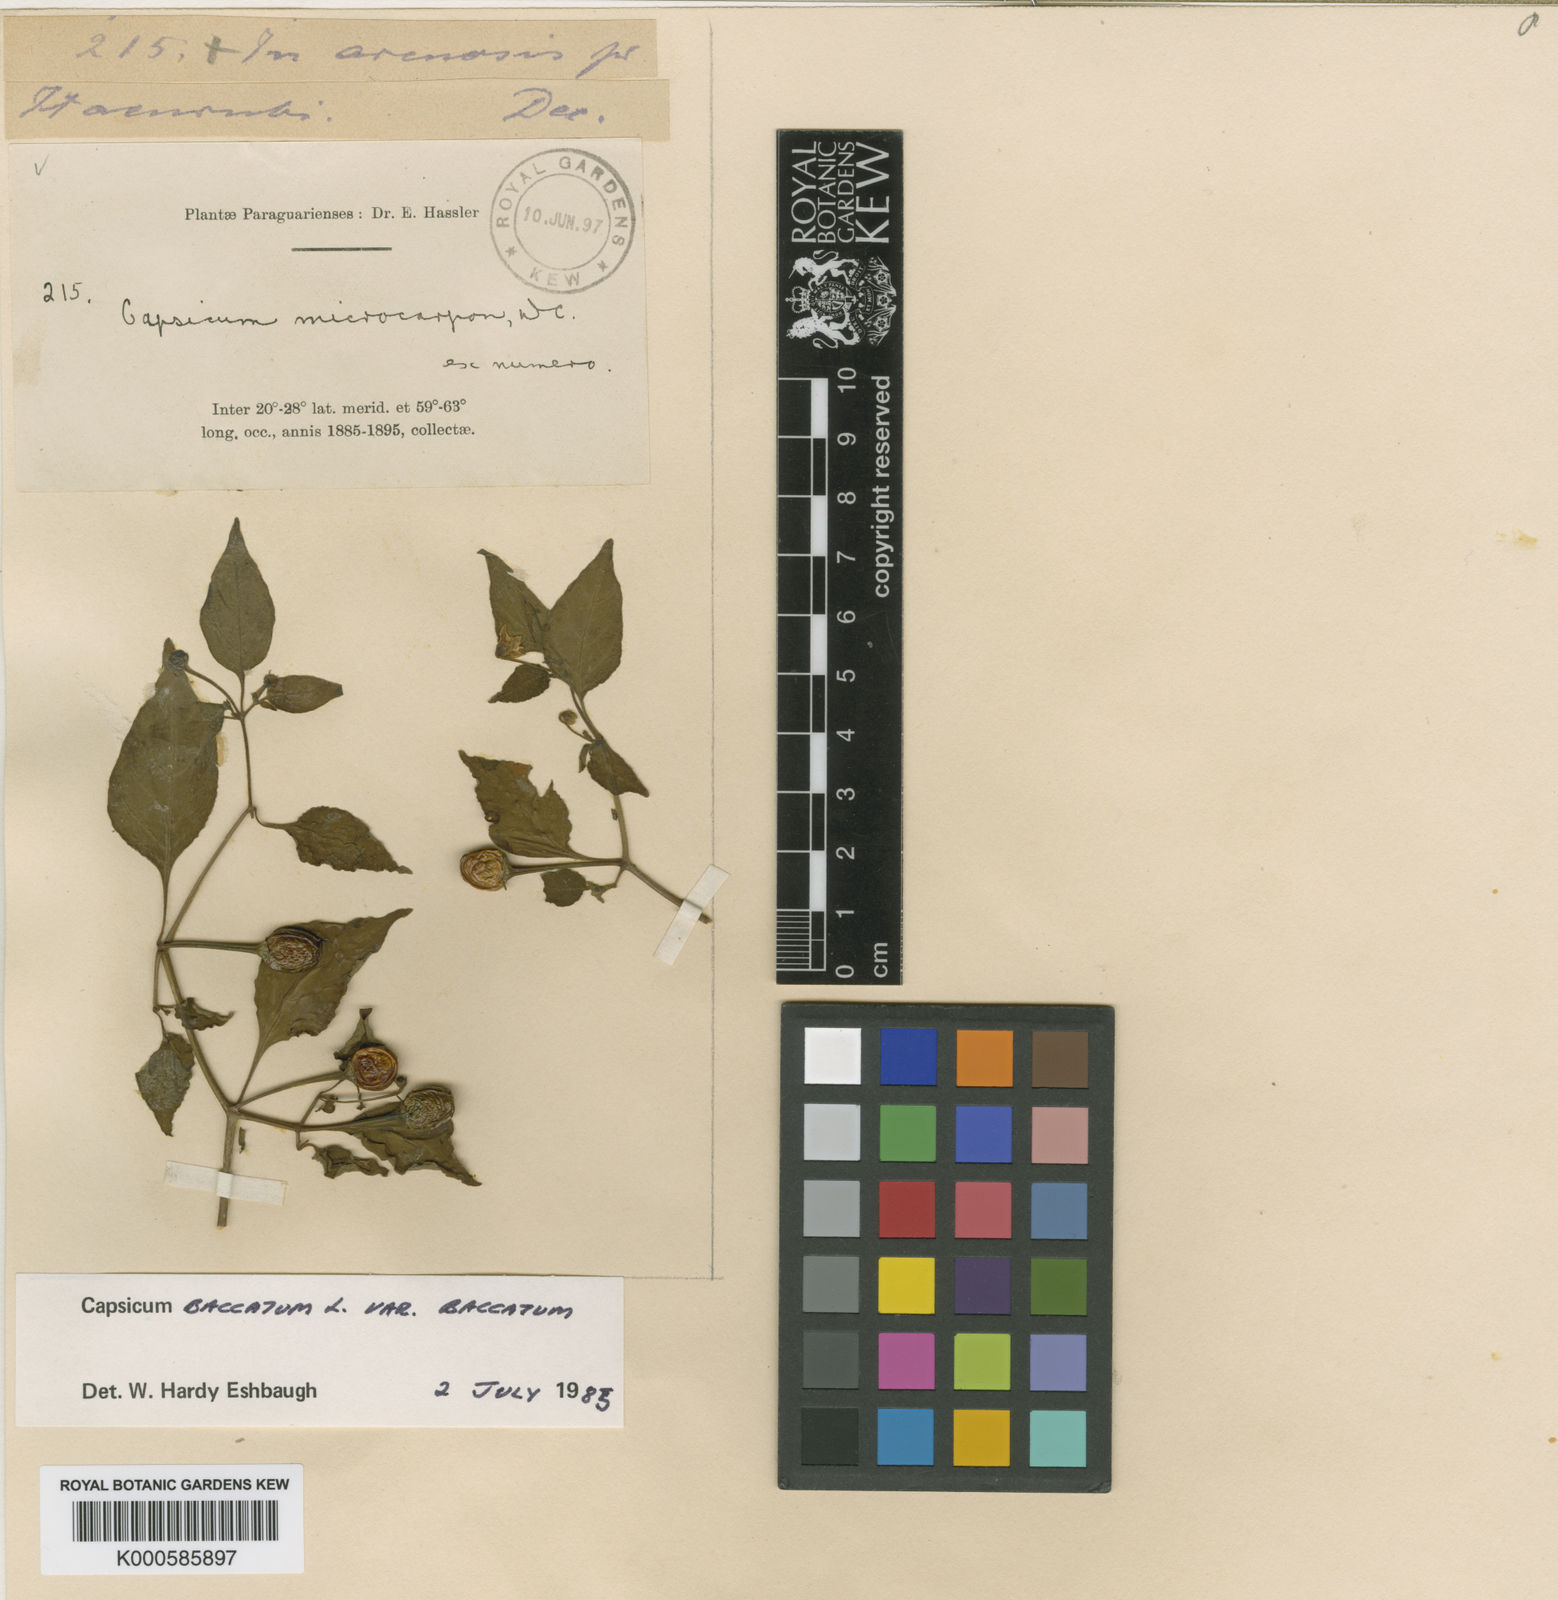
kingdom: Plantae
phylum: Tracheophyta
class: Magnoliopsida
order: Solanales
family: Solanaceae
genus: Capsicum
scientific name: Capsicum
